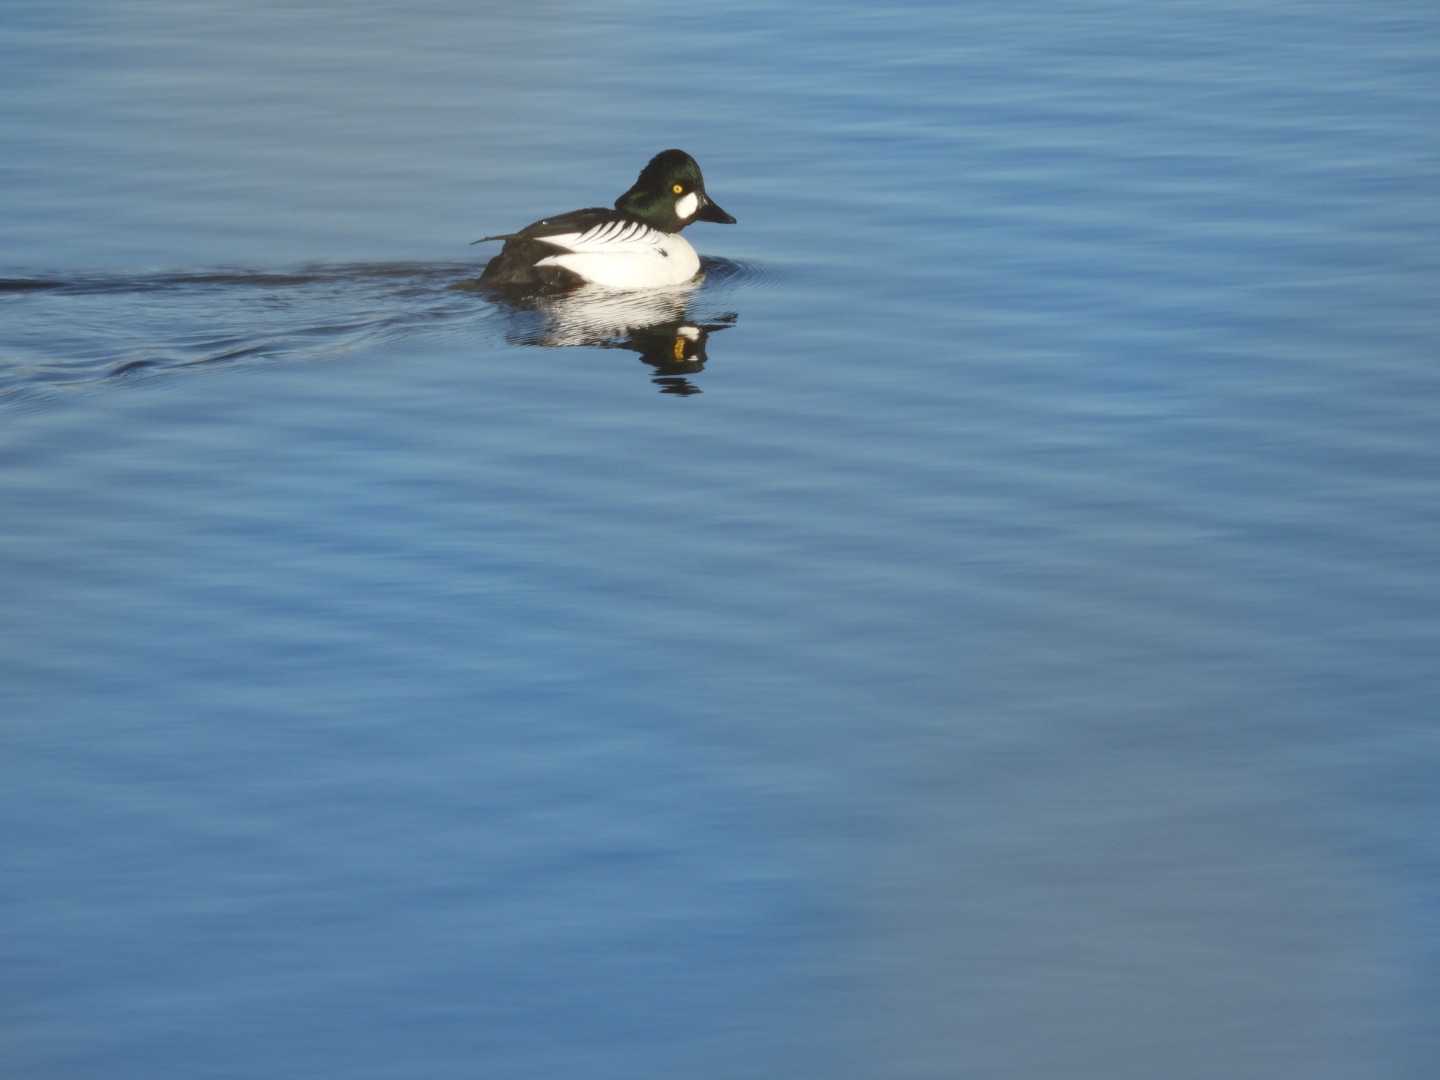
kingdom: Animalia
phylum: Chordata
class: Aves
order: Anseriformes
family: Anatidae
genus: Bucephala
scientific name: Bucephala clangula
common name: Hvinand
